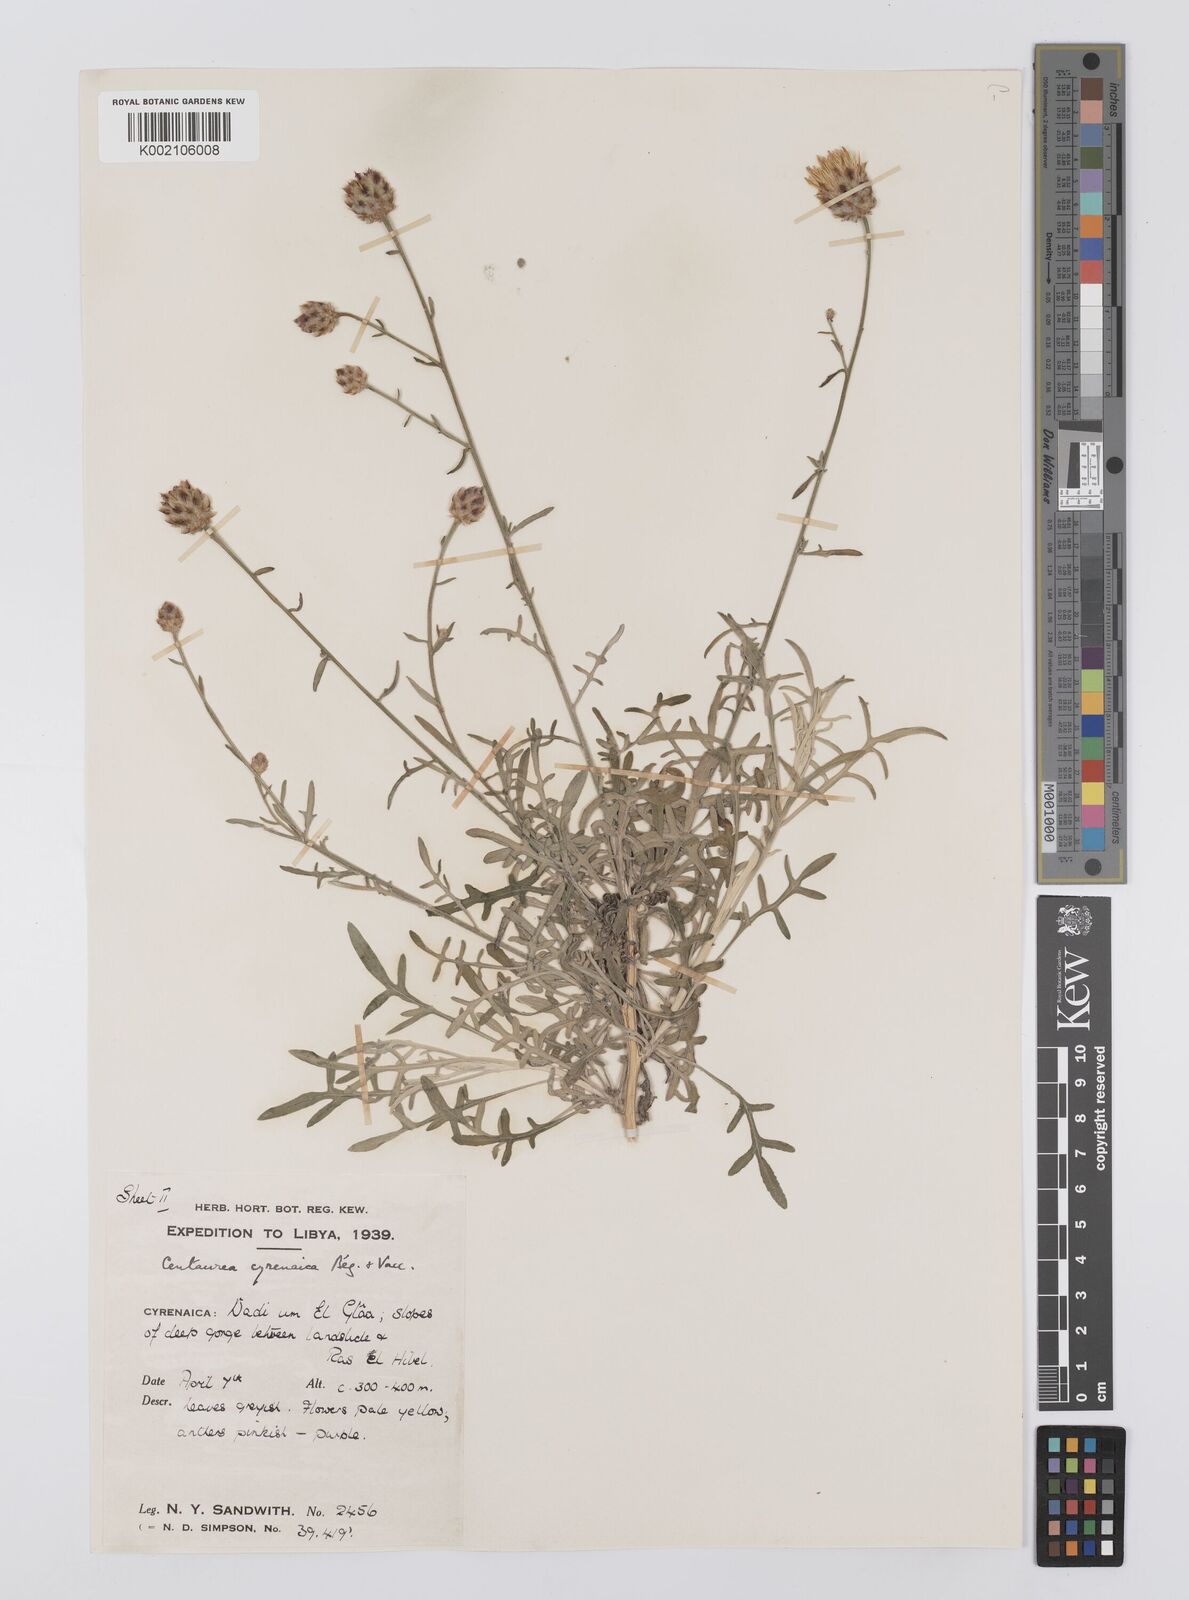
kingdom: Plantae
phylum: Tracheophyta
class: Magnoliopsida
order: Asterales
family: Asteraceae
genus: Centaurea
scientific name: Centaurea cyrenaica
